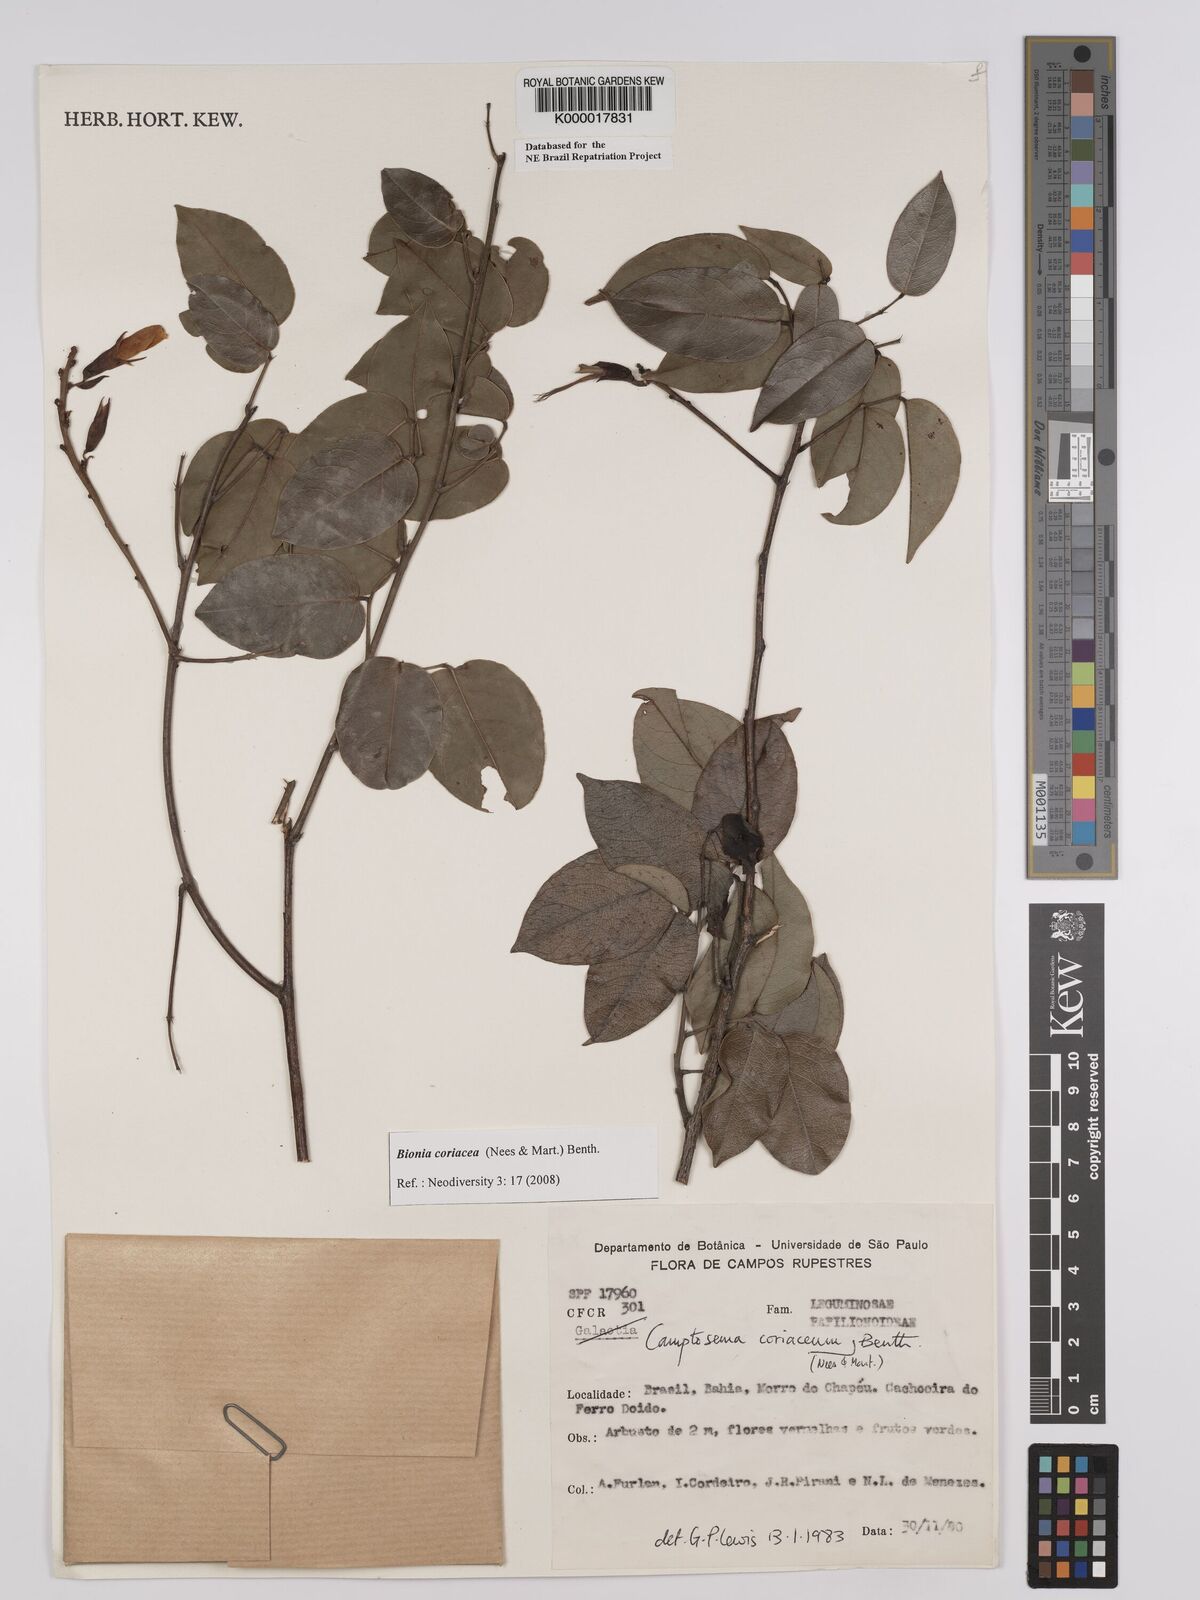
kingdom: Plantae
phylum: Tracheophyta
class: Magnoliopsida
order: Fabales
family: Fabaceae
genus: Camptosema
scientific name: Camptosema coriaceum
